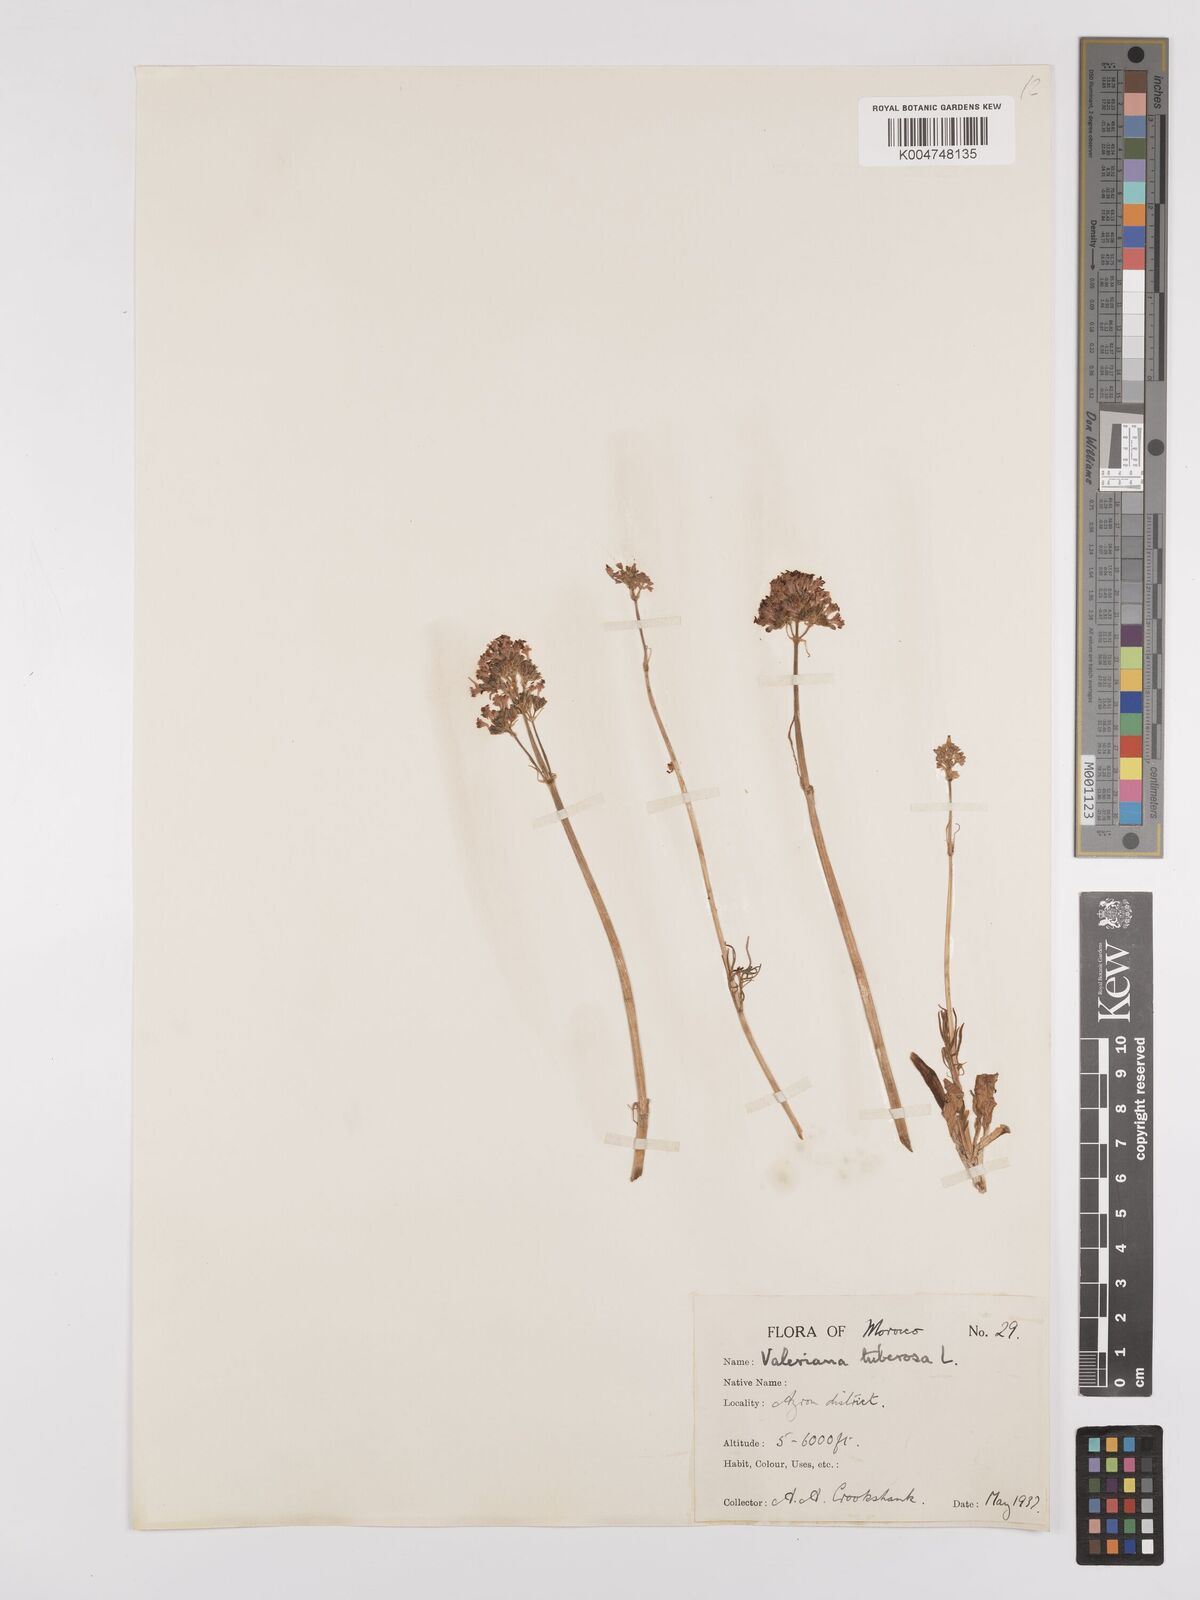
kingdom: Plantae
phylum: Tracheophyta
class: Magnoliopsida
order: Dipsacales
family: Caprifoliaceae
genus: Valeriana
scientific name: Valeriana tuberosa
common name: Tuberous valerian
